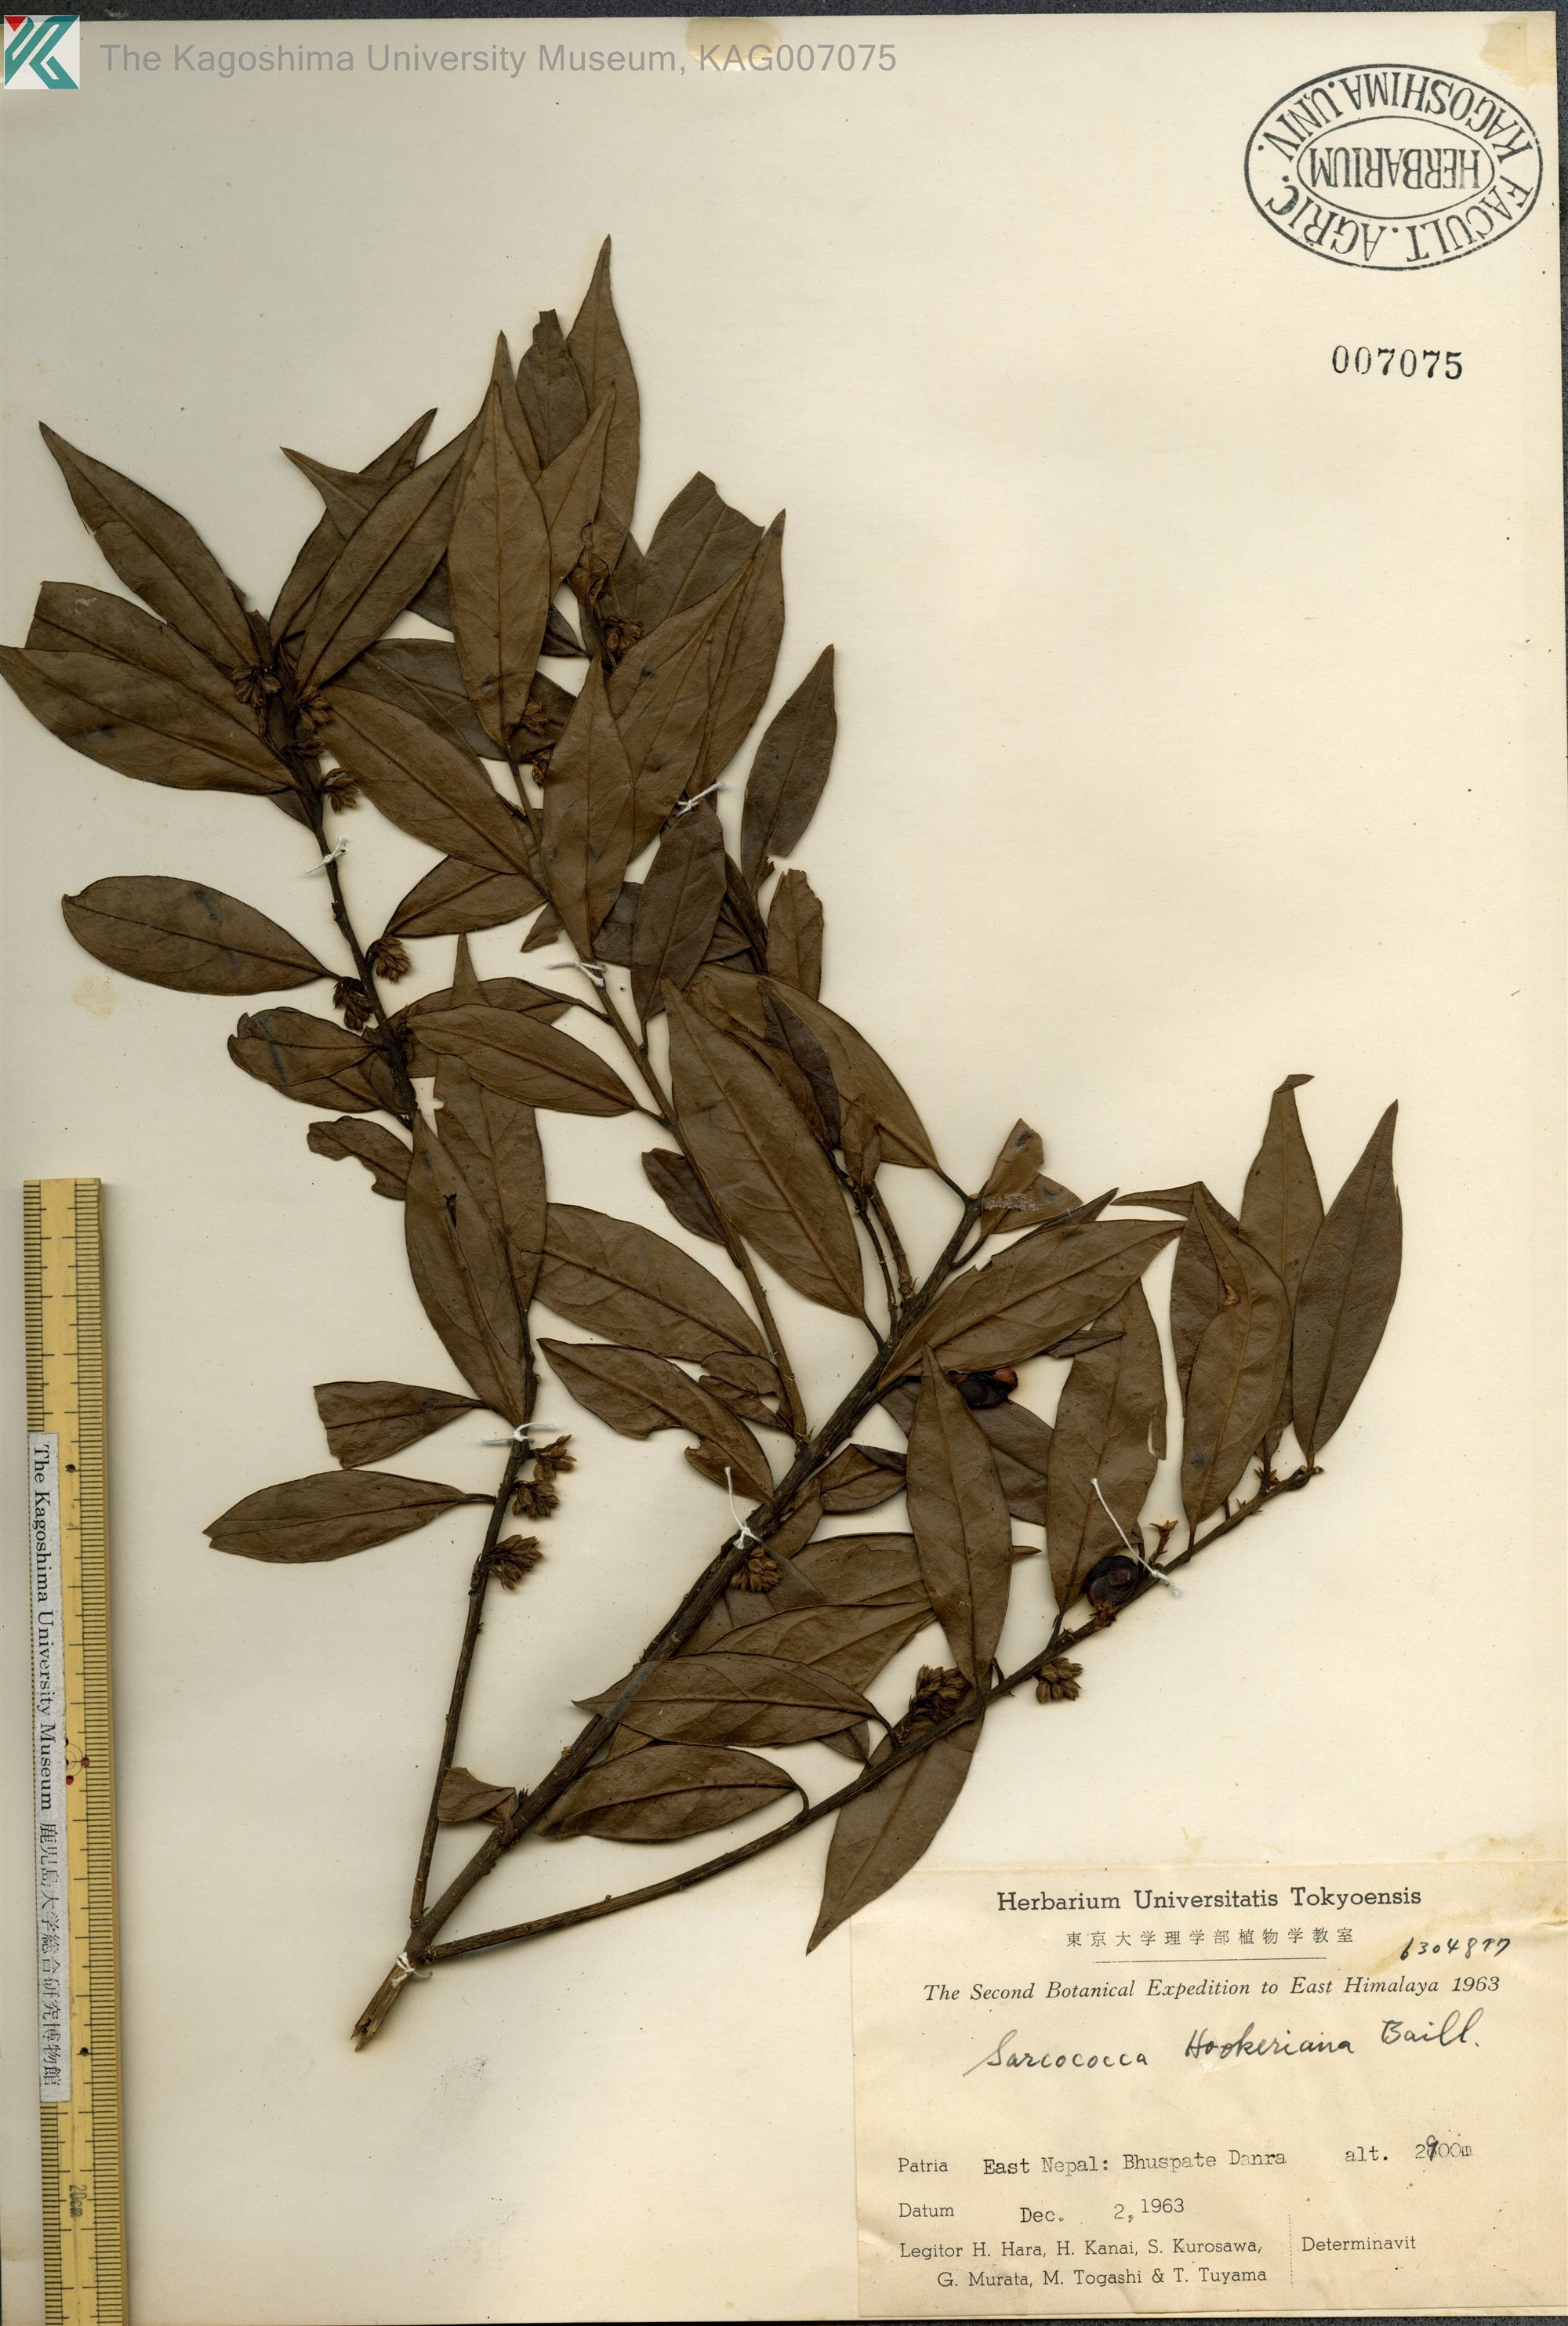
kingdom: Plantae
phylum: Tracheophyta
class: Magnoliopsida
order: Buxales
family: Buxaceae
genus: Sarcococca
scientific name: Sarcococca hookeriana
